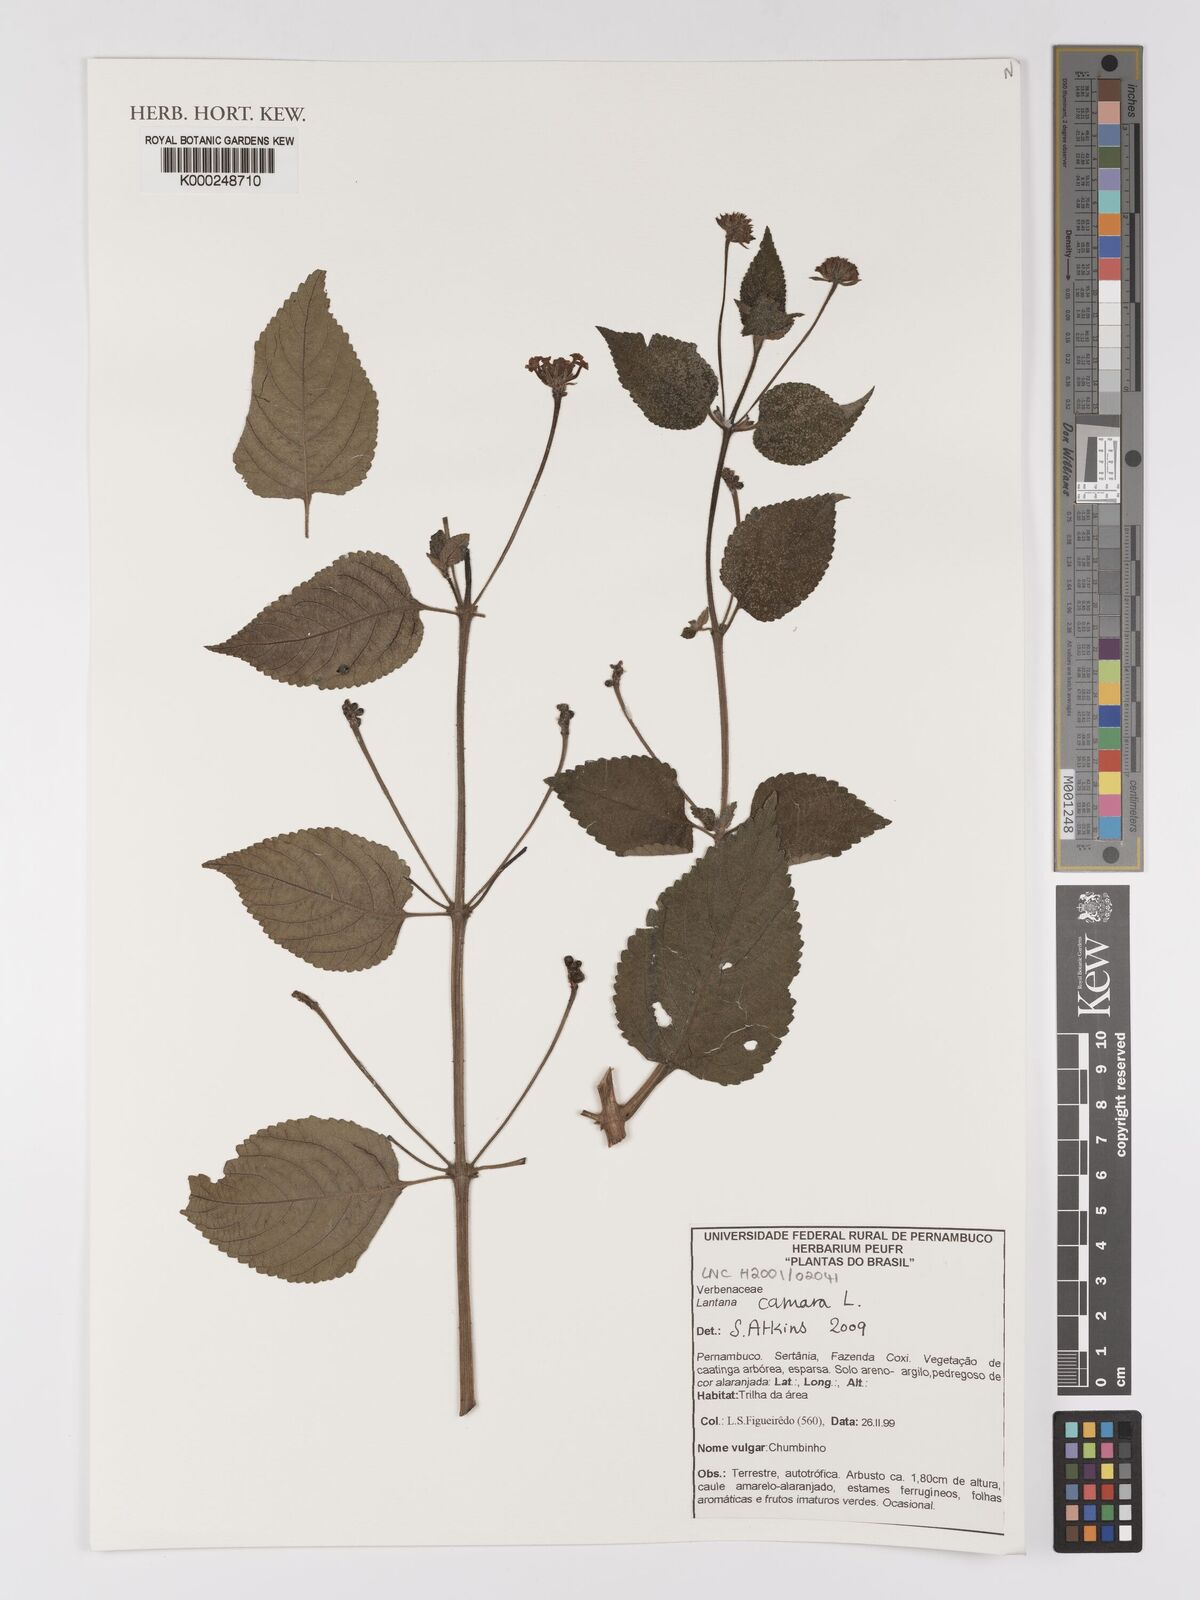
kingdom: Plantae
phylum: Tracheophyta
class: Magnoliopsida
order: Lamiales
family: Verbenaceae
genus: Lantana
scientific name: Lantana camara
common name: Lantana
